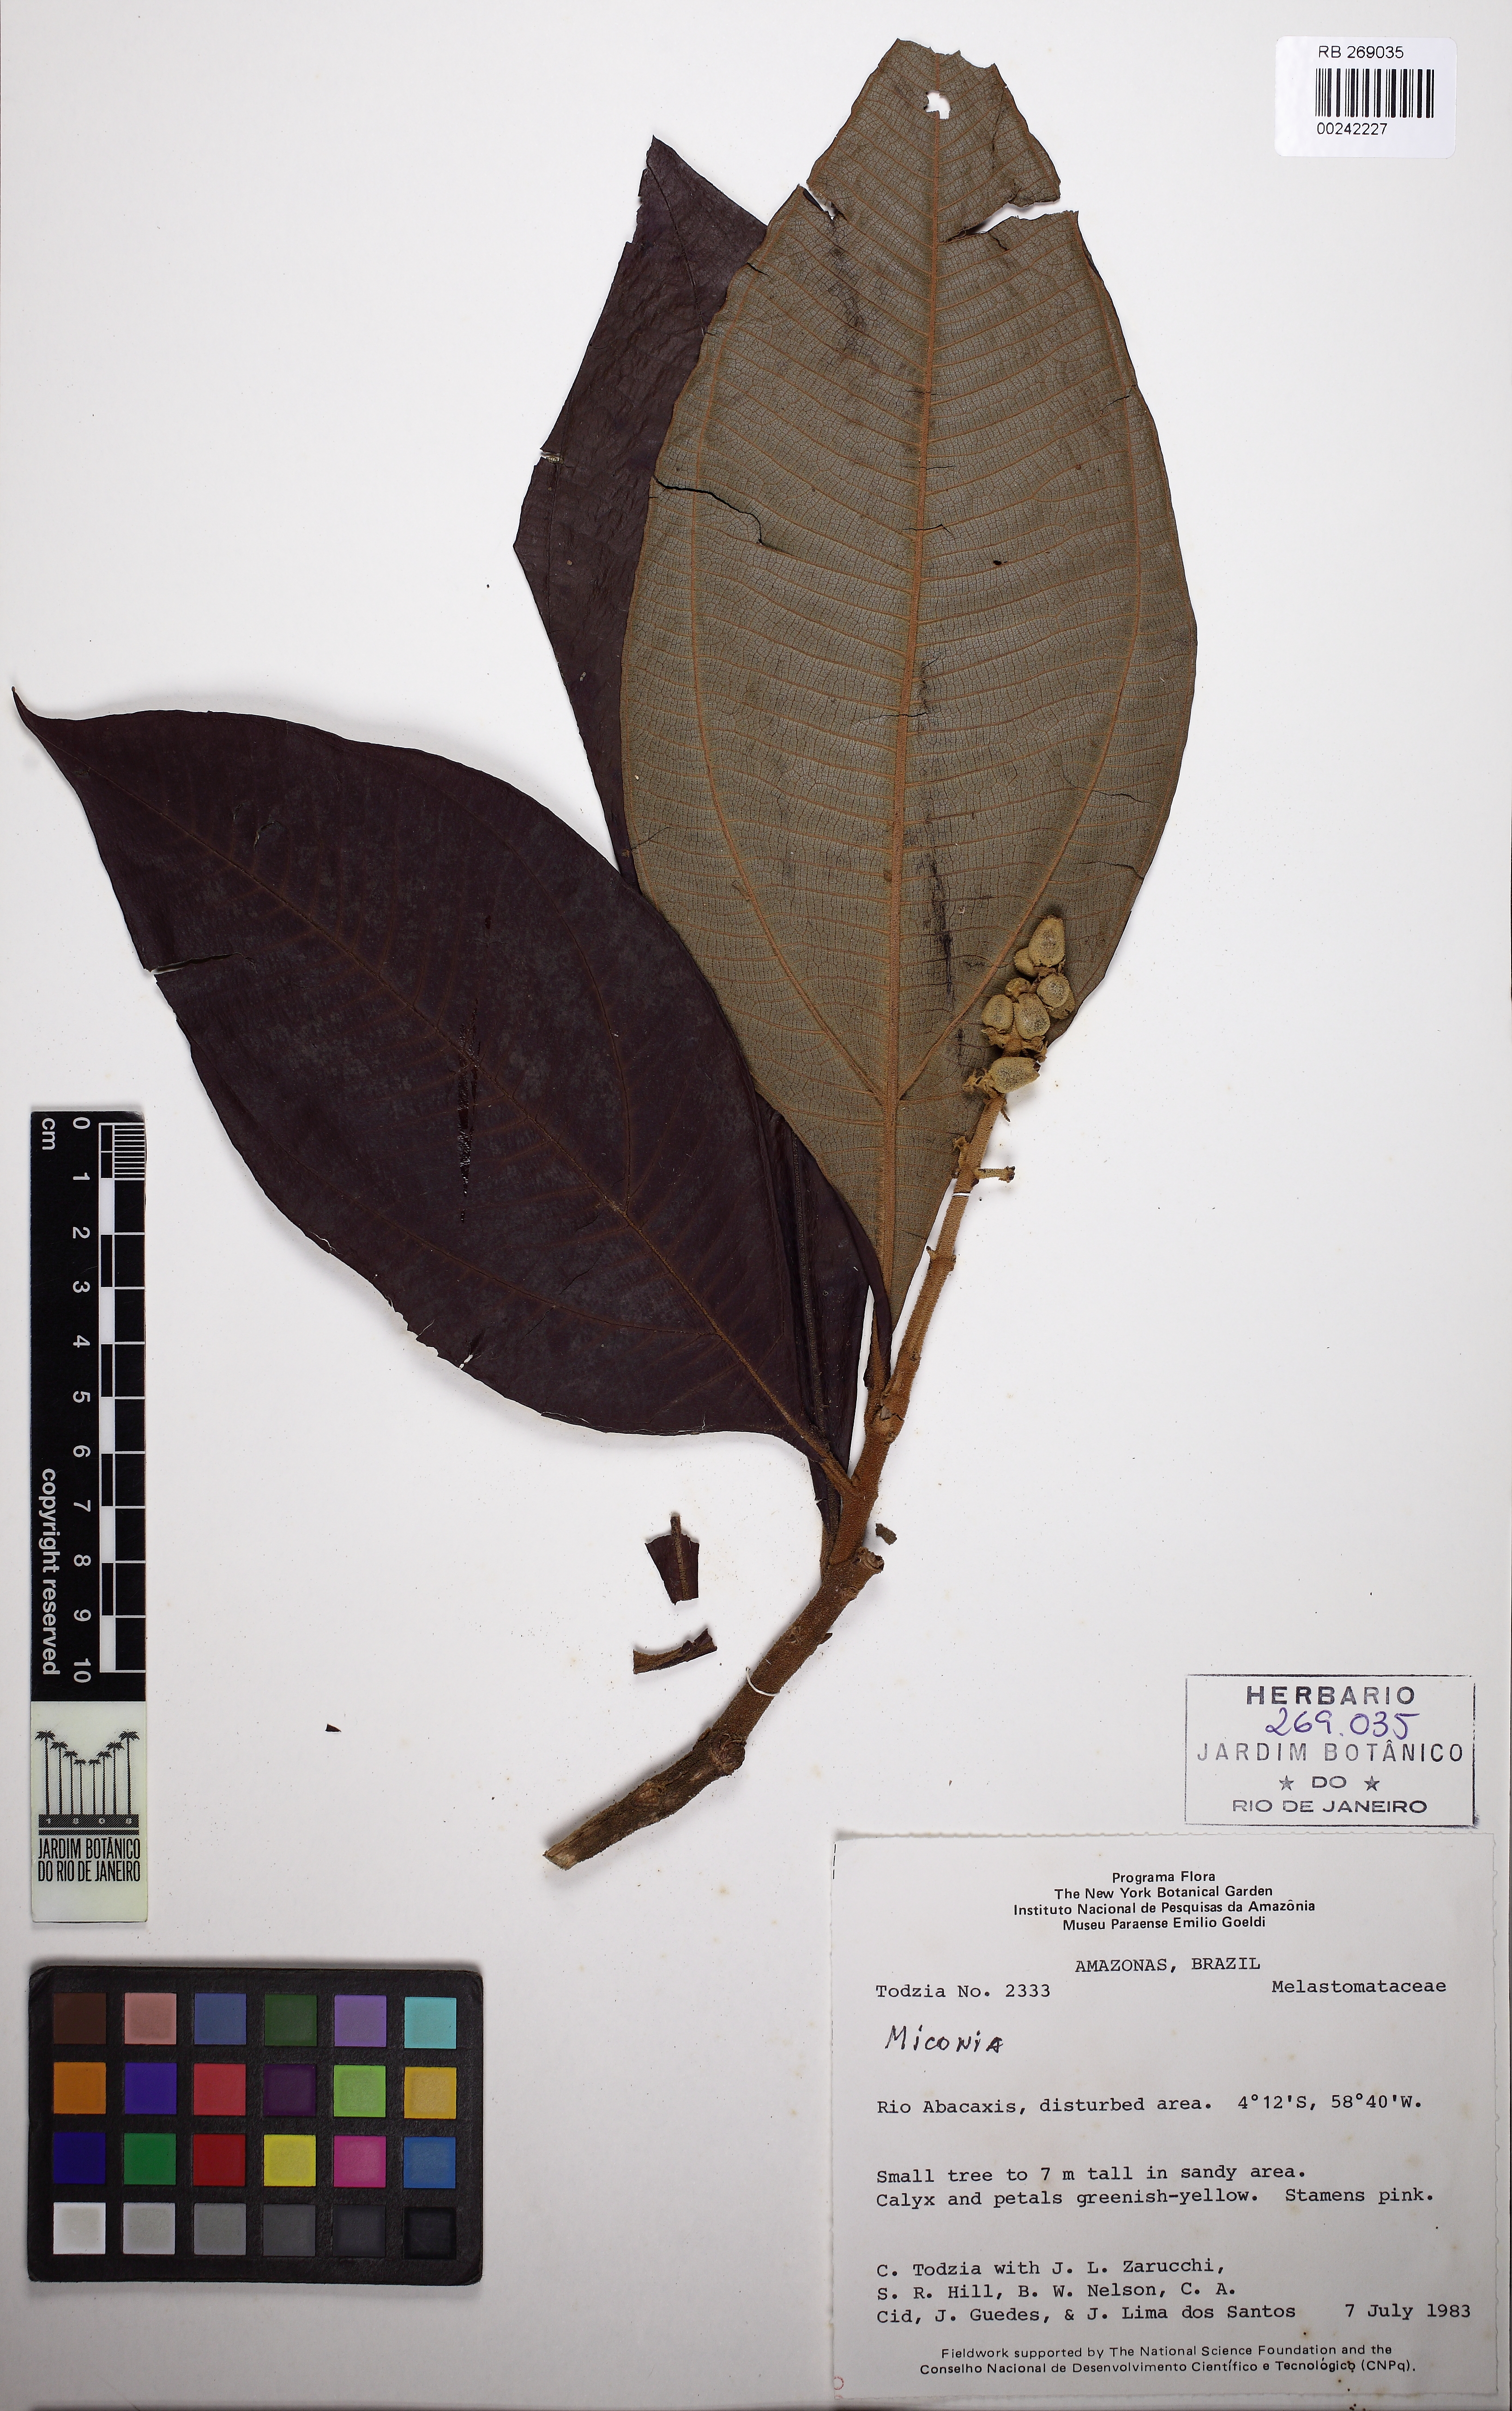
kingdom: Plantae
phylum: Tracheophyta
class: Magnoliopsida
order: Myrtales
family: Melastomataceae
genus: Miconia
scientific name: Miconia tomentosa
